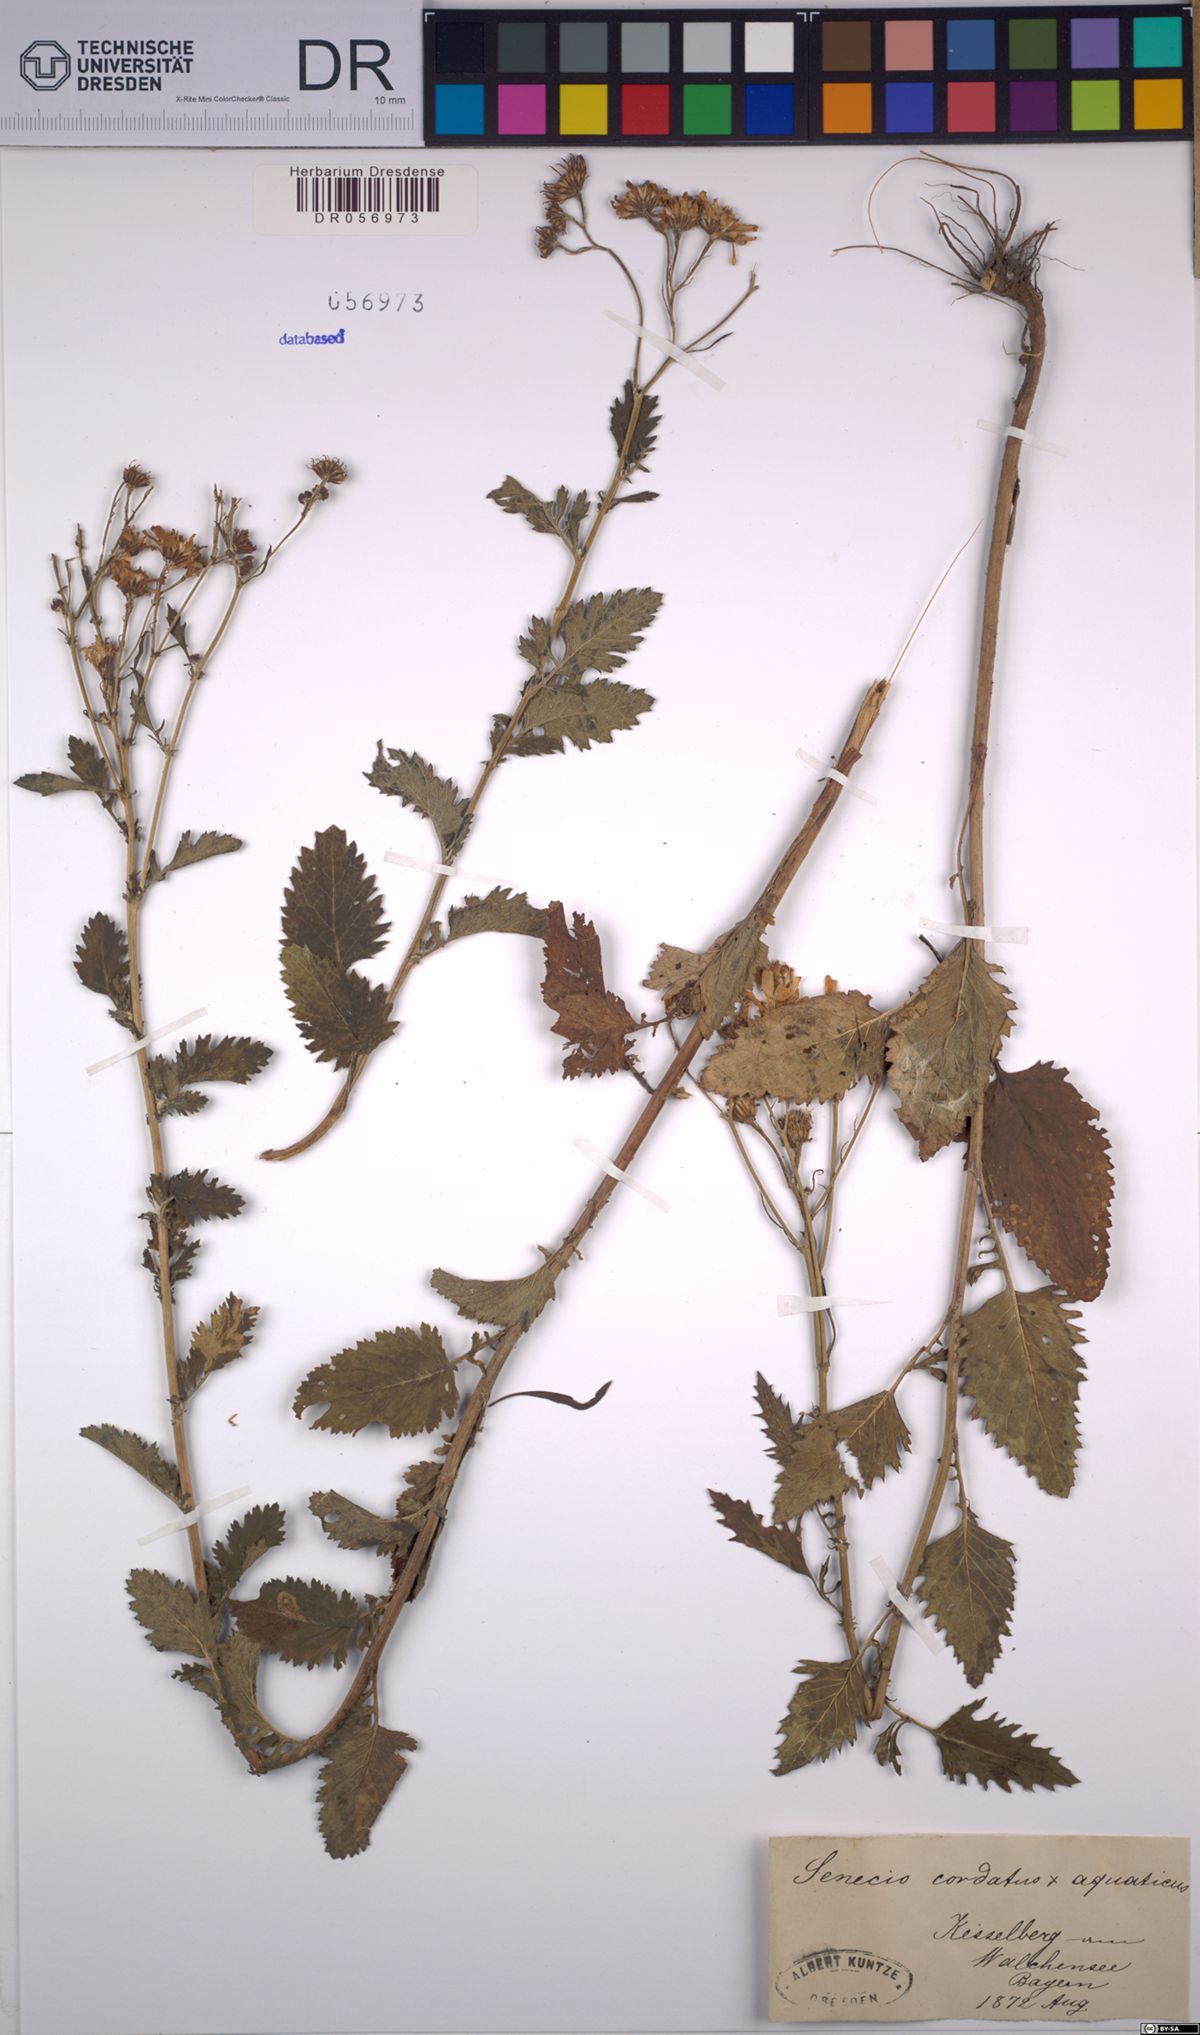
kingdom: Plantae
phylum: Tracheophyta
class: Magnoliopsida
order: Asterales
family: Asteraceae
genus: Jacobaea
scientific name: Jacobaea alpina
